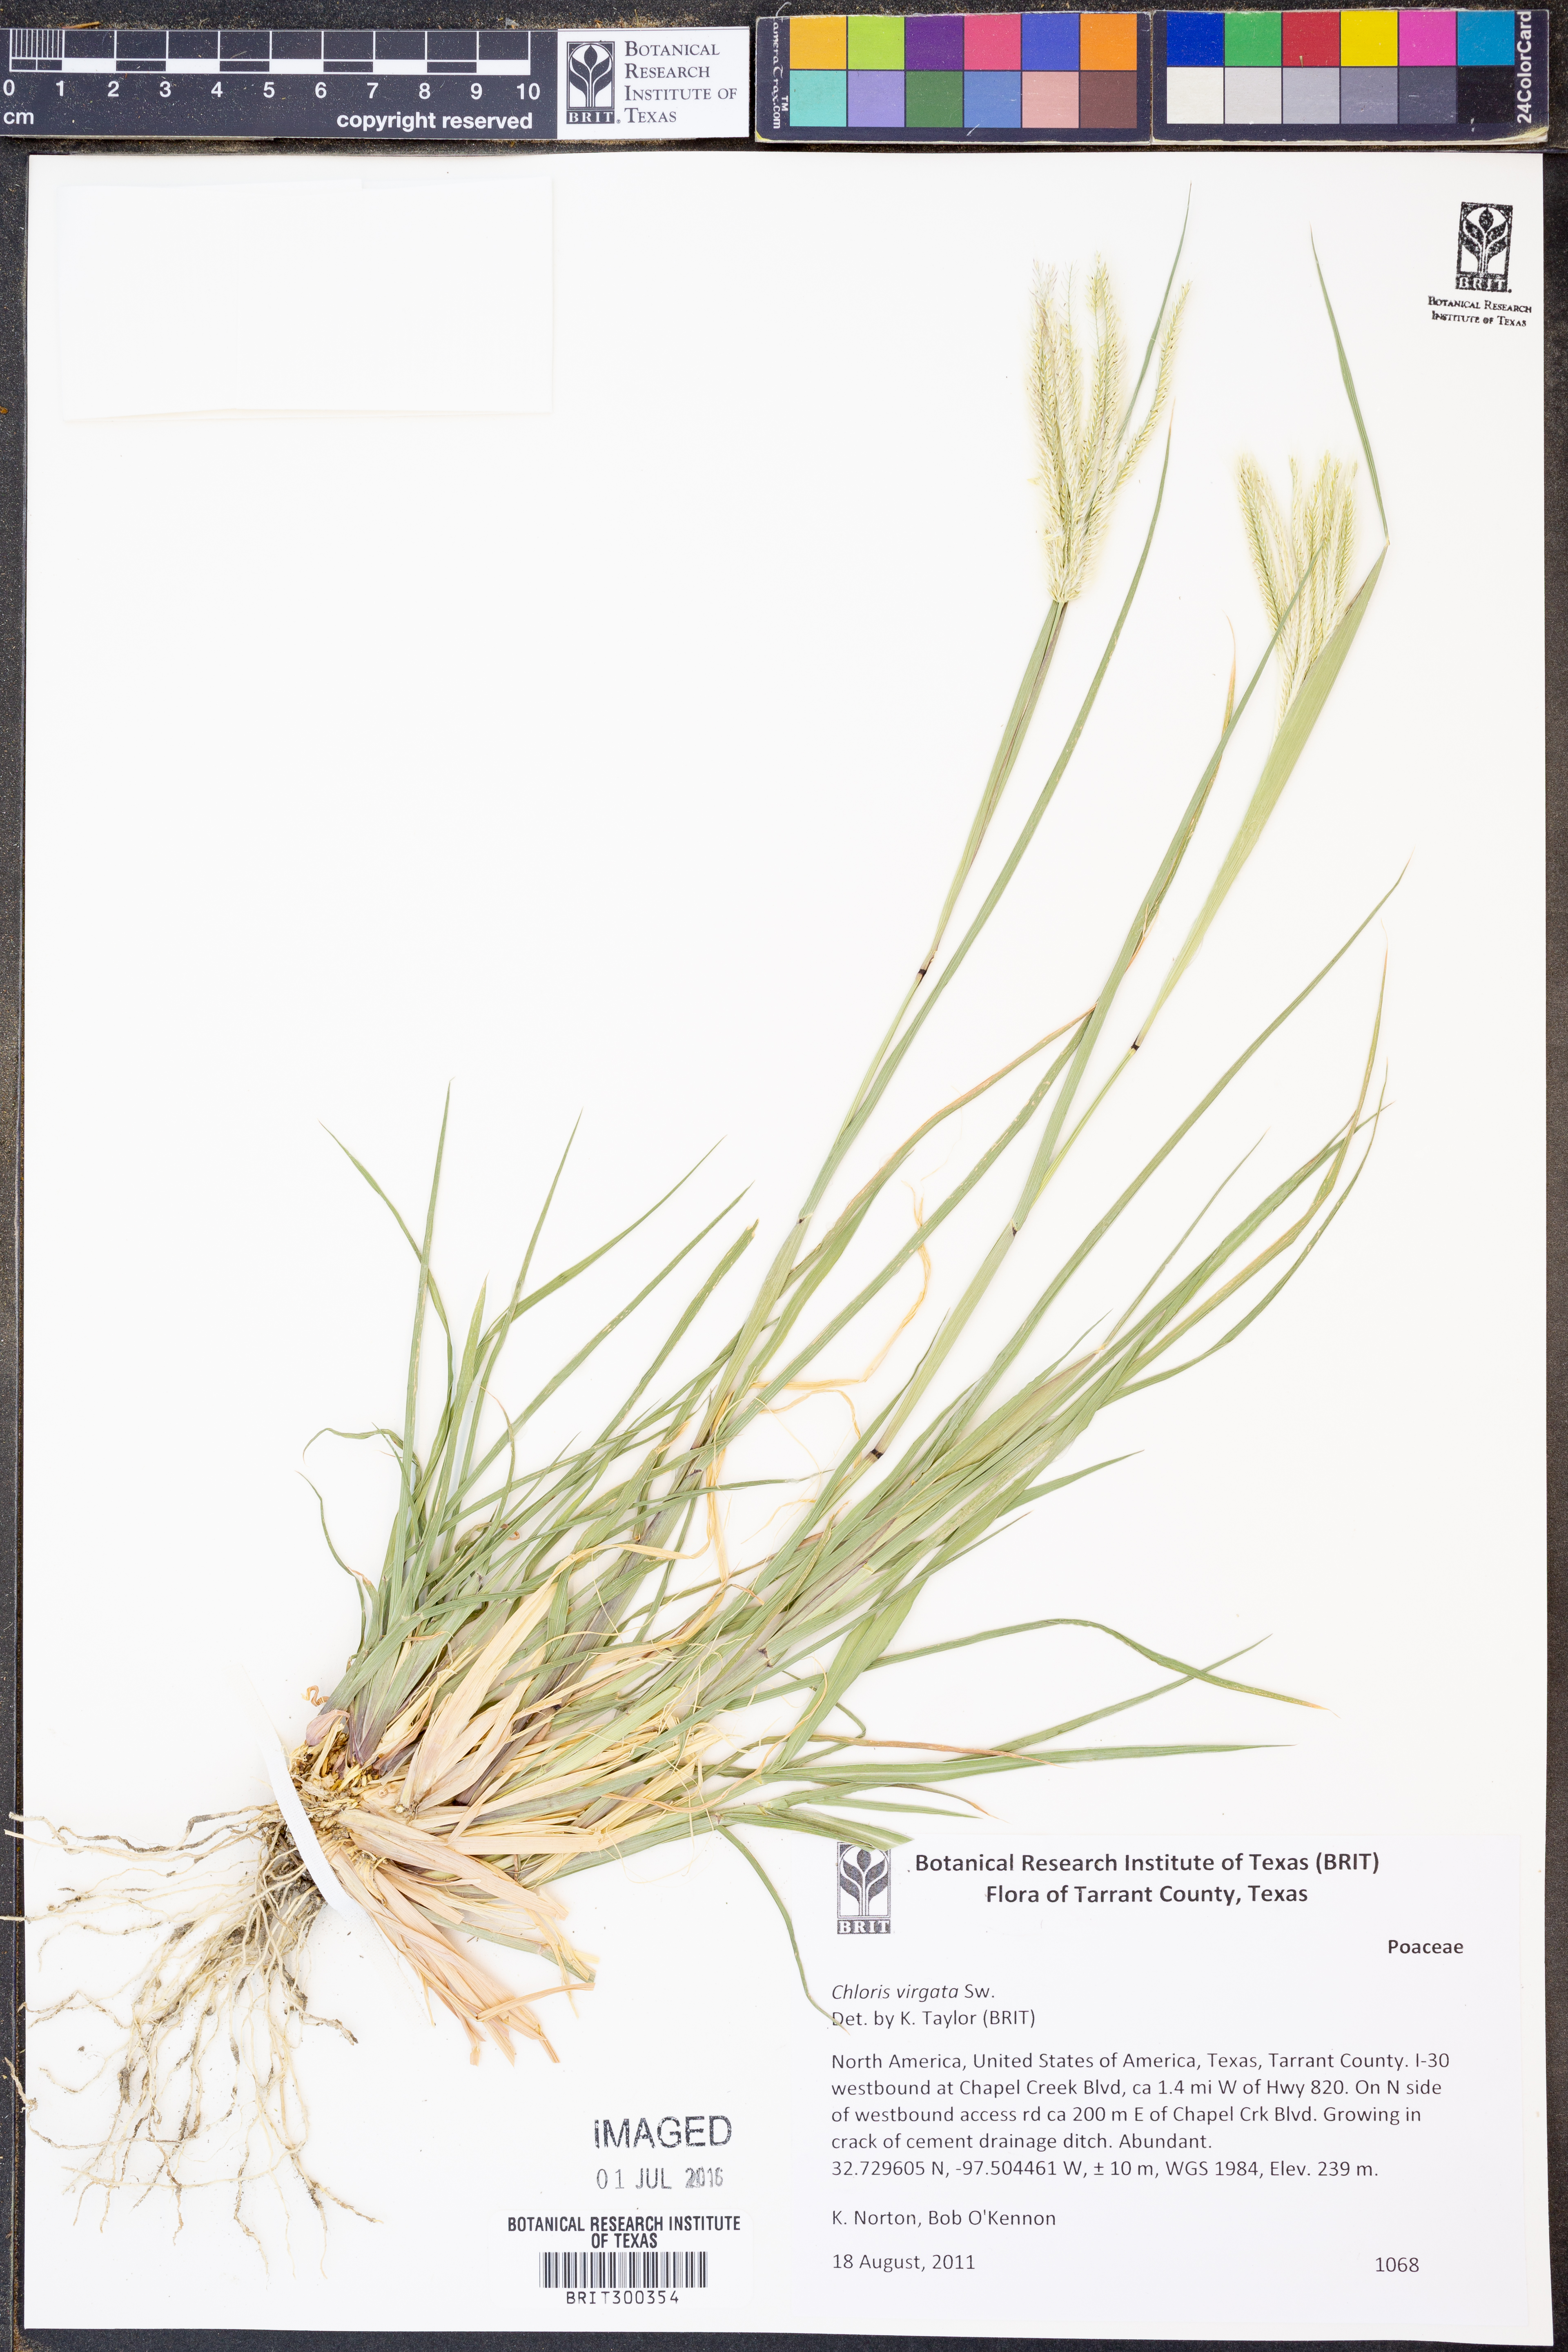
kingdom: Plantae
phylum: Tracheophyta
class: Liliopsida
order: Poales
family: Poaceae
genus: Chloris
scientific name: Chloris virgata
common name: Feathery rhodes-grass
